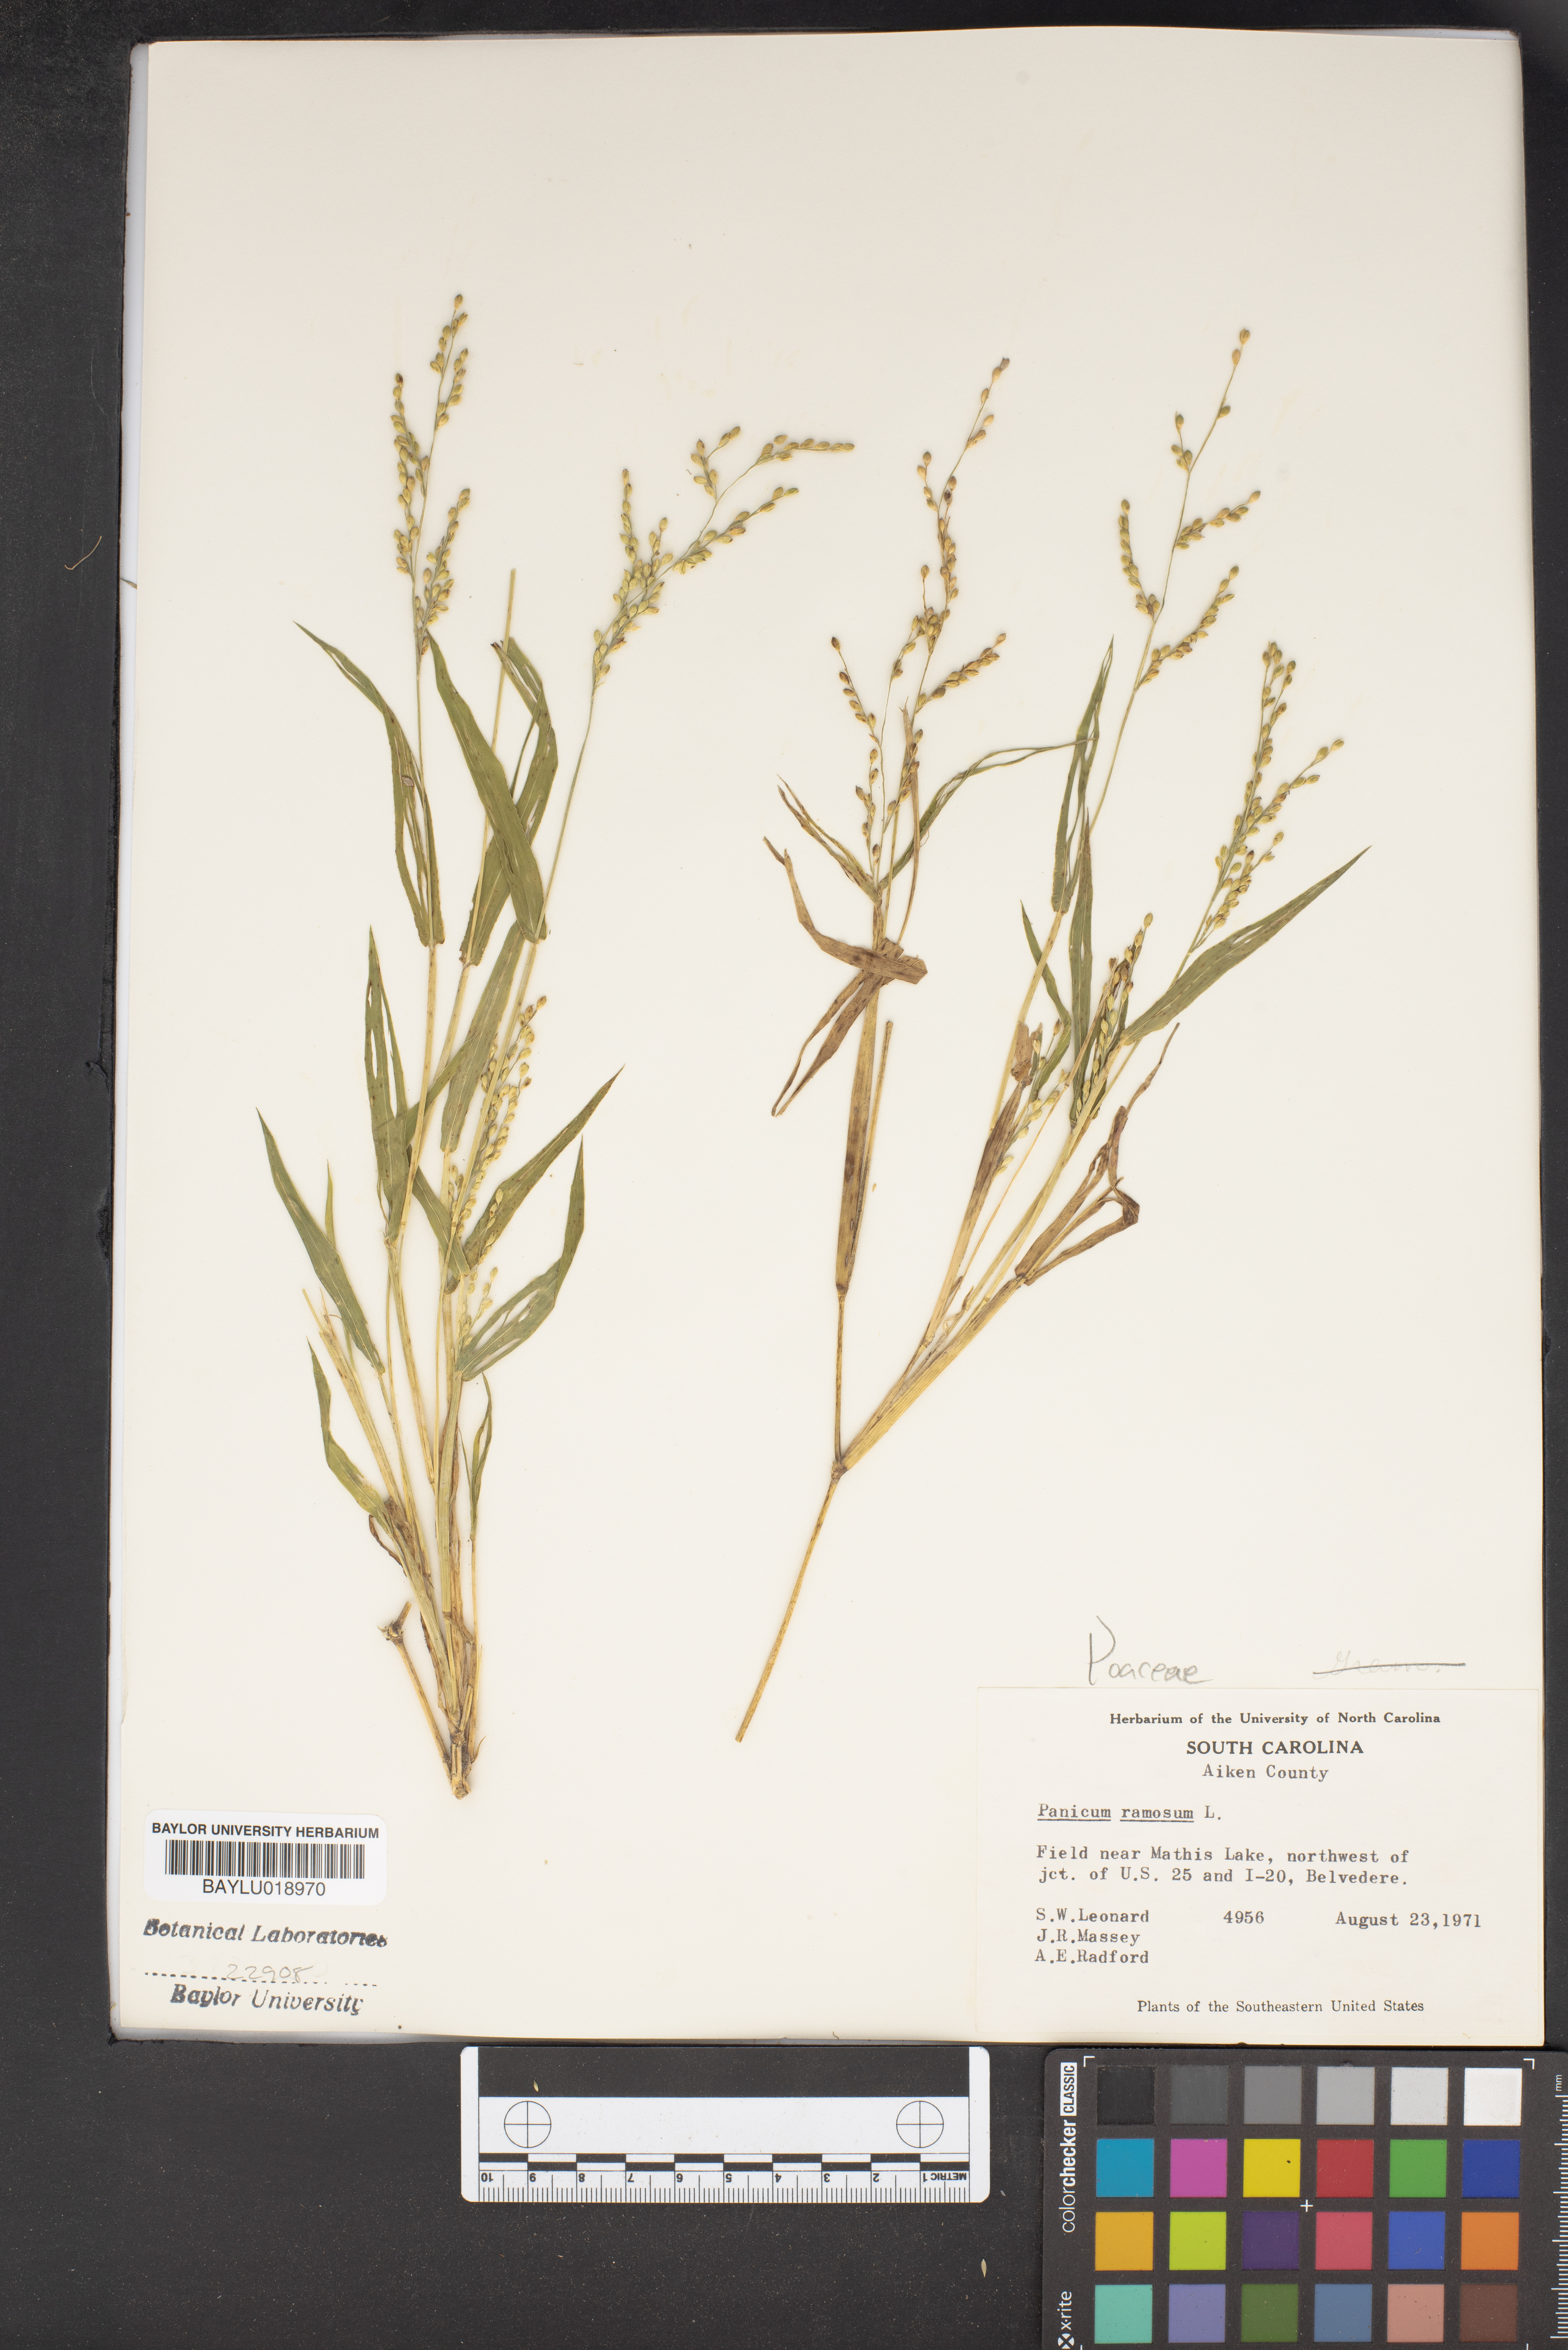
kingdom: Plantae
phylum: Tracheophyta
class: Liliopsida
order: Poales
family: Poaceae
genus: Urochloa
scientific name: Urochloa ramosa
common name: Browntop millet
